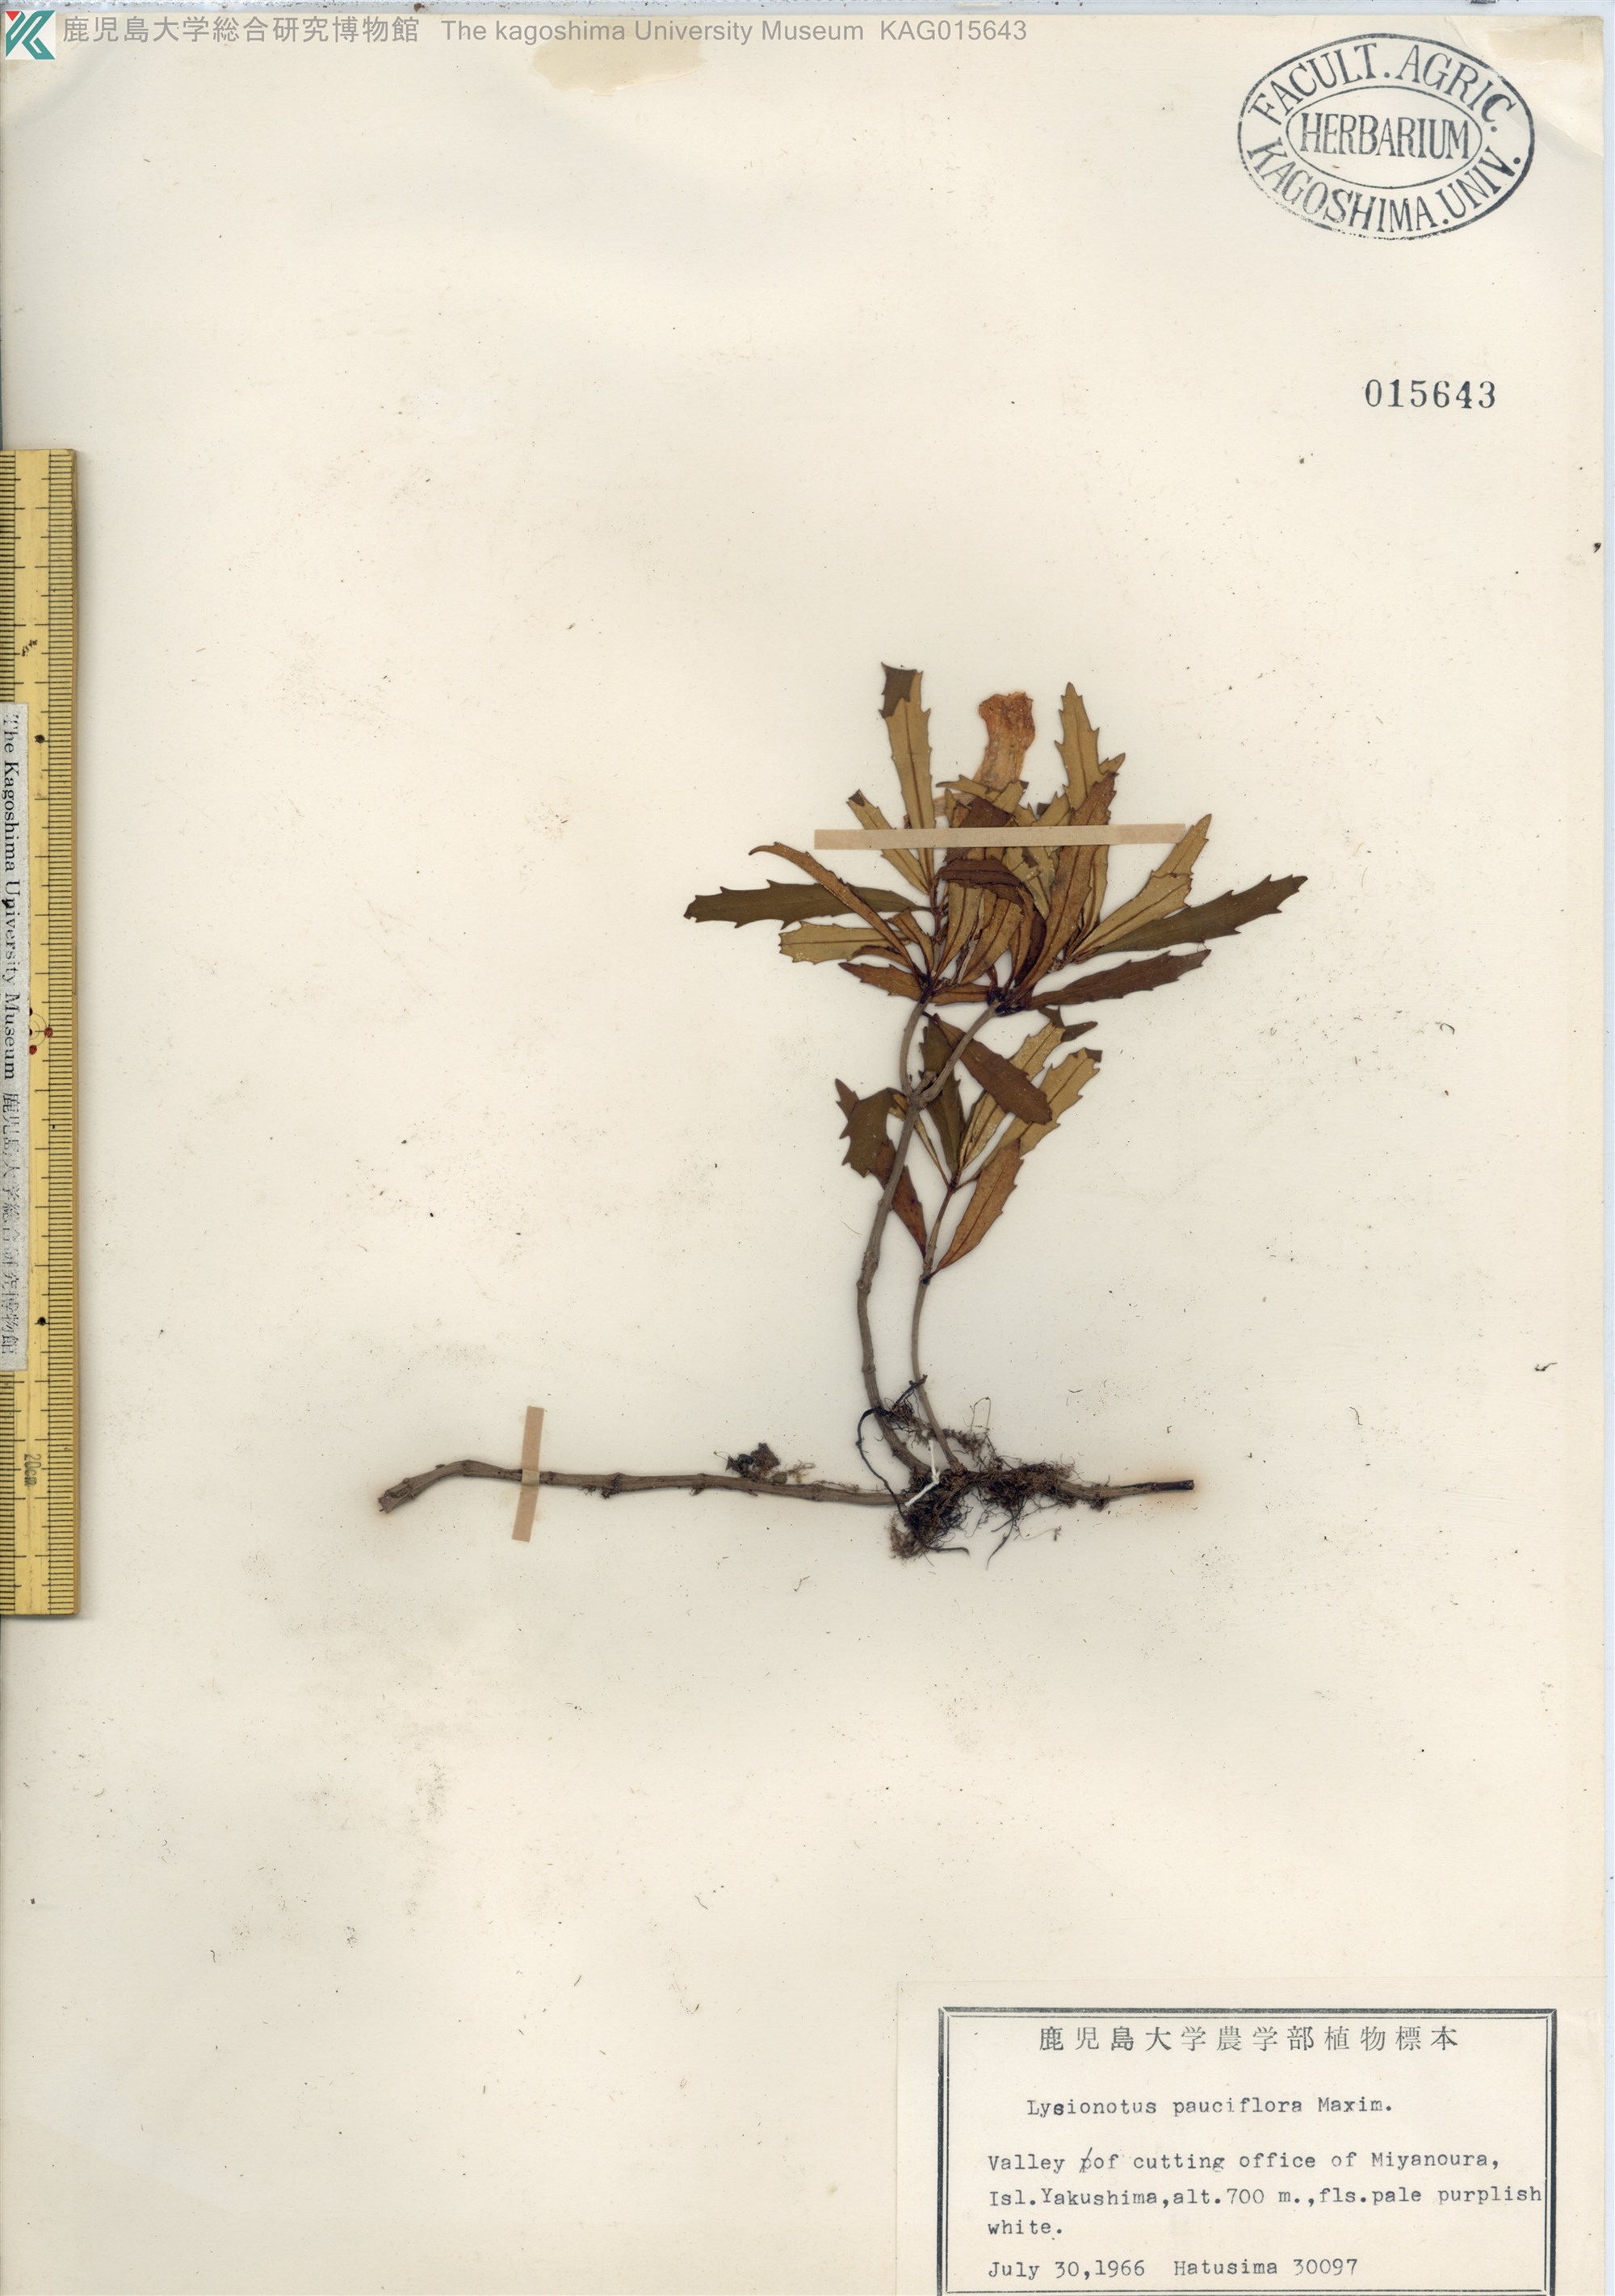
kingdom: Plantae
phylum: Tracheophyta
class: Magnoliopsida
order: Lamiales
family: Gesneriaceae
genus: Lysionotus
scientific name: Lysionotus pauciflorus
